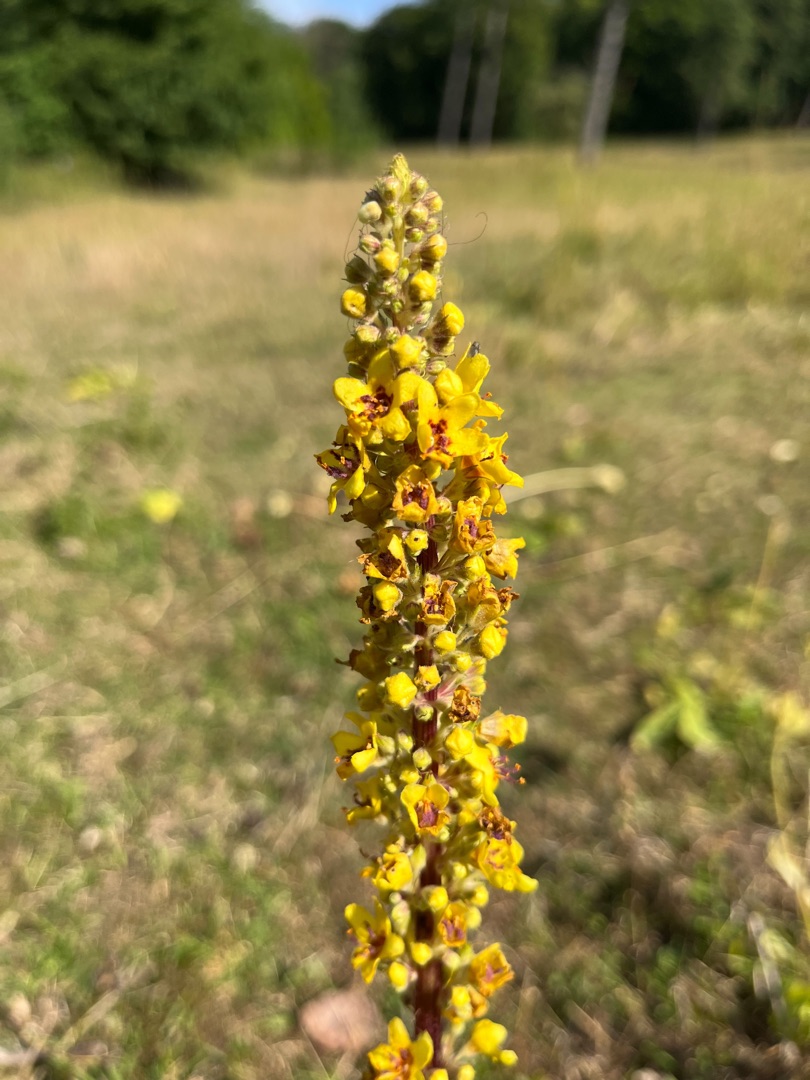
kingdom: Plantae
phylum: Tracheophyta
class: Magnoliopsida
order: Lamiales
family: Scrophulariaceae
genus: Verbascum
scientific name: Verbascum nigrum
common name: Mørk kongelys
